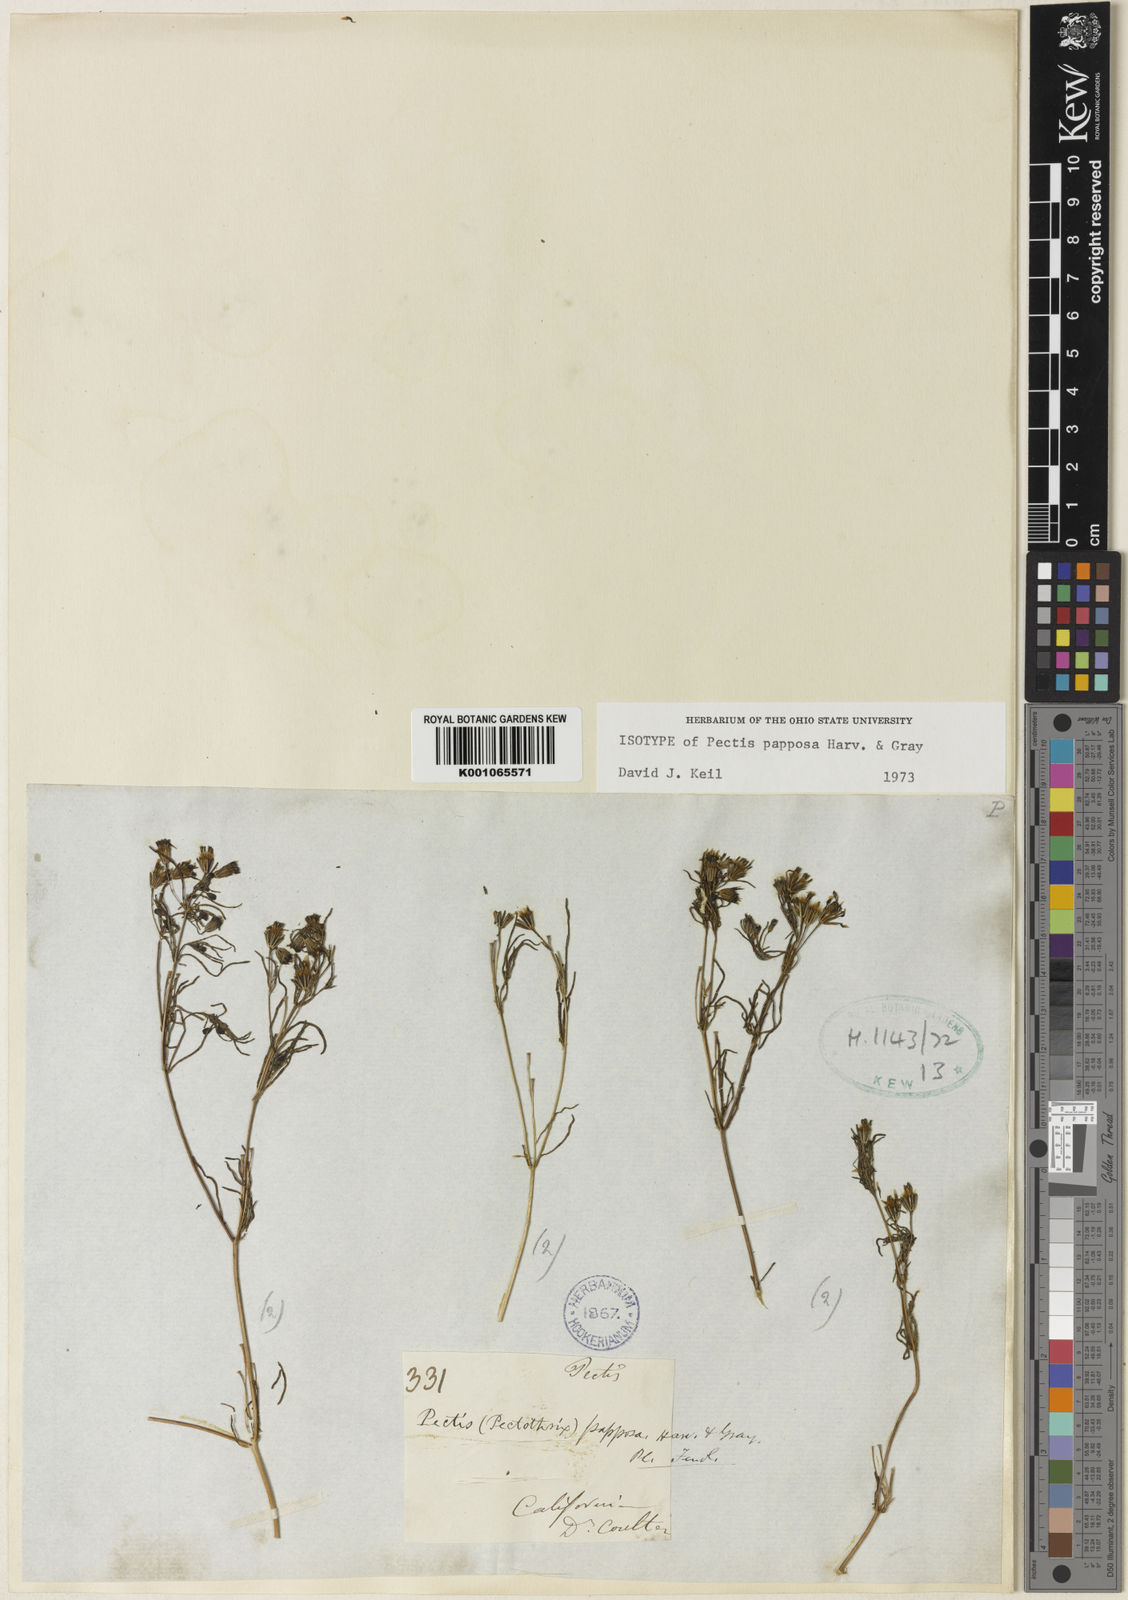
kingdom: Plantae
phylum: Tracheophyta
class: Magnoliopsida
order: Asterales
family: Asteraceae
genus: Pectis
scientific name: Pectis papposa
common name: Many-bristle chinchweed
